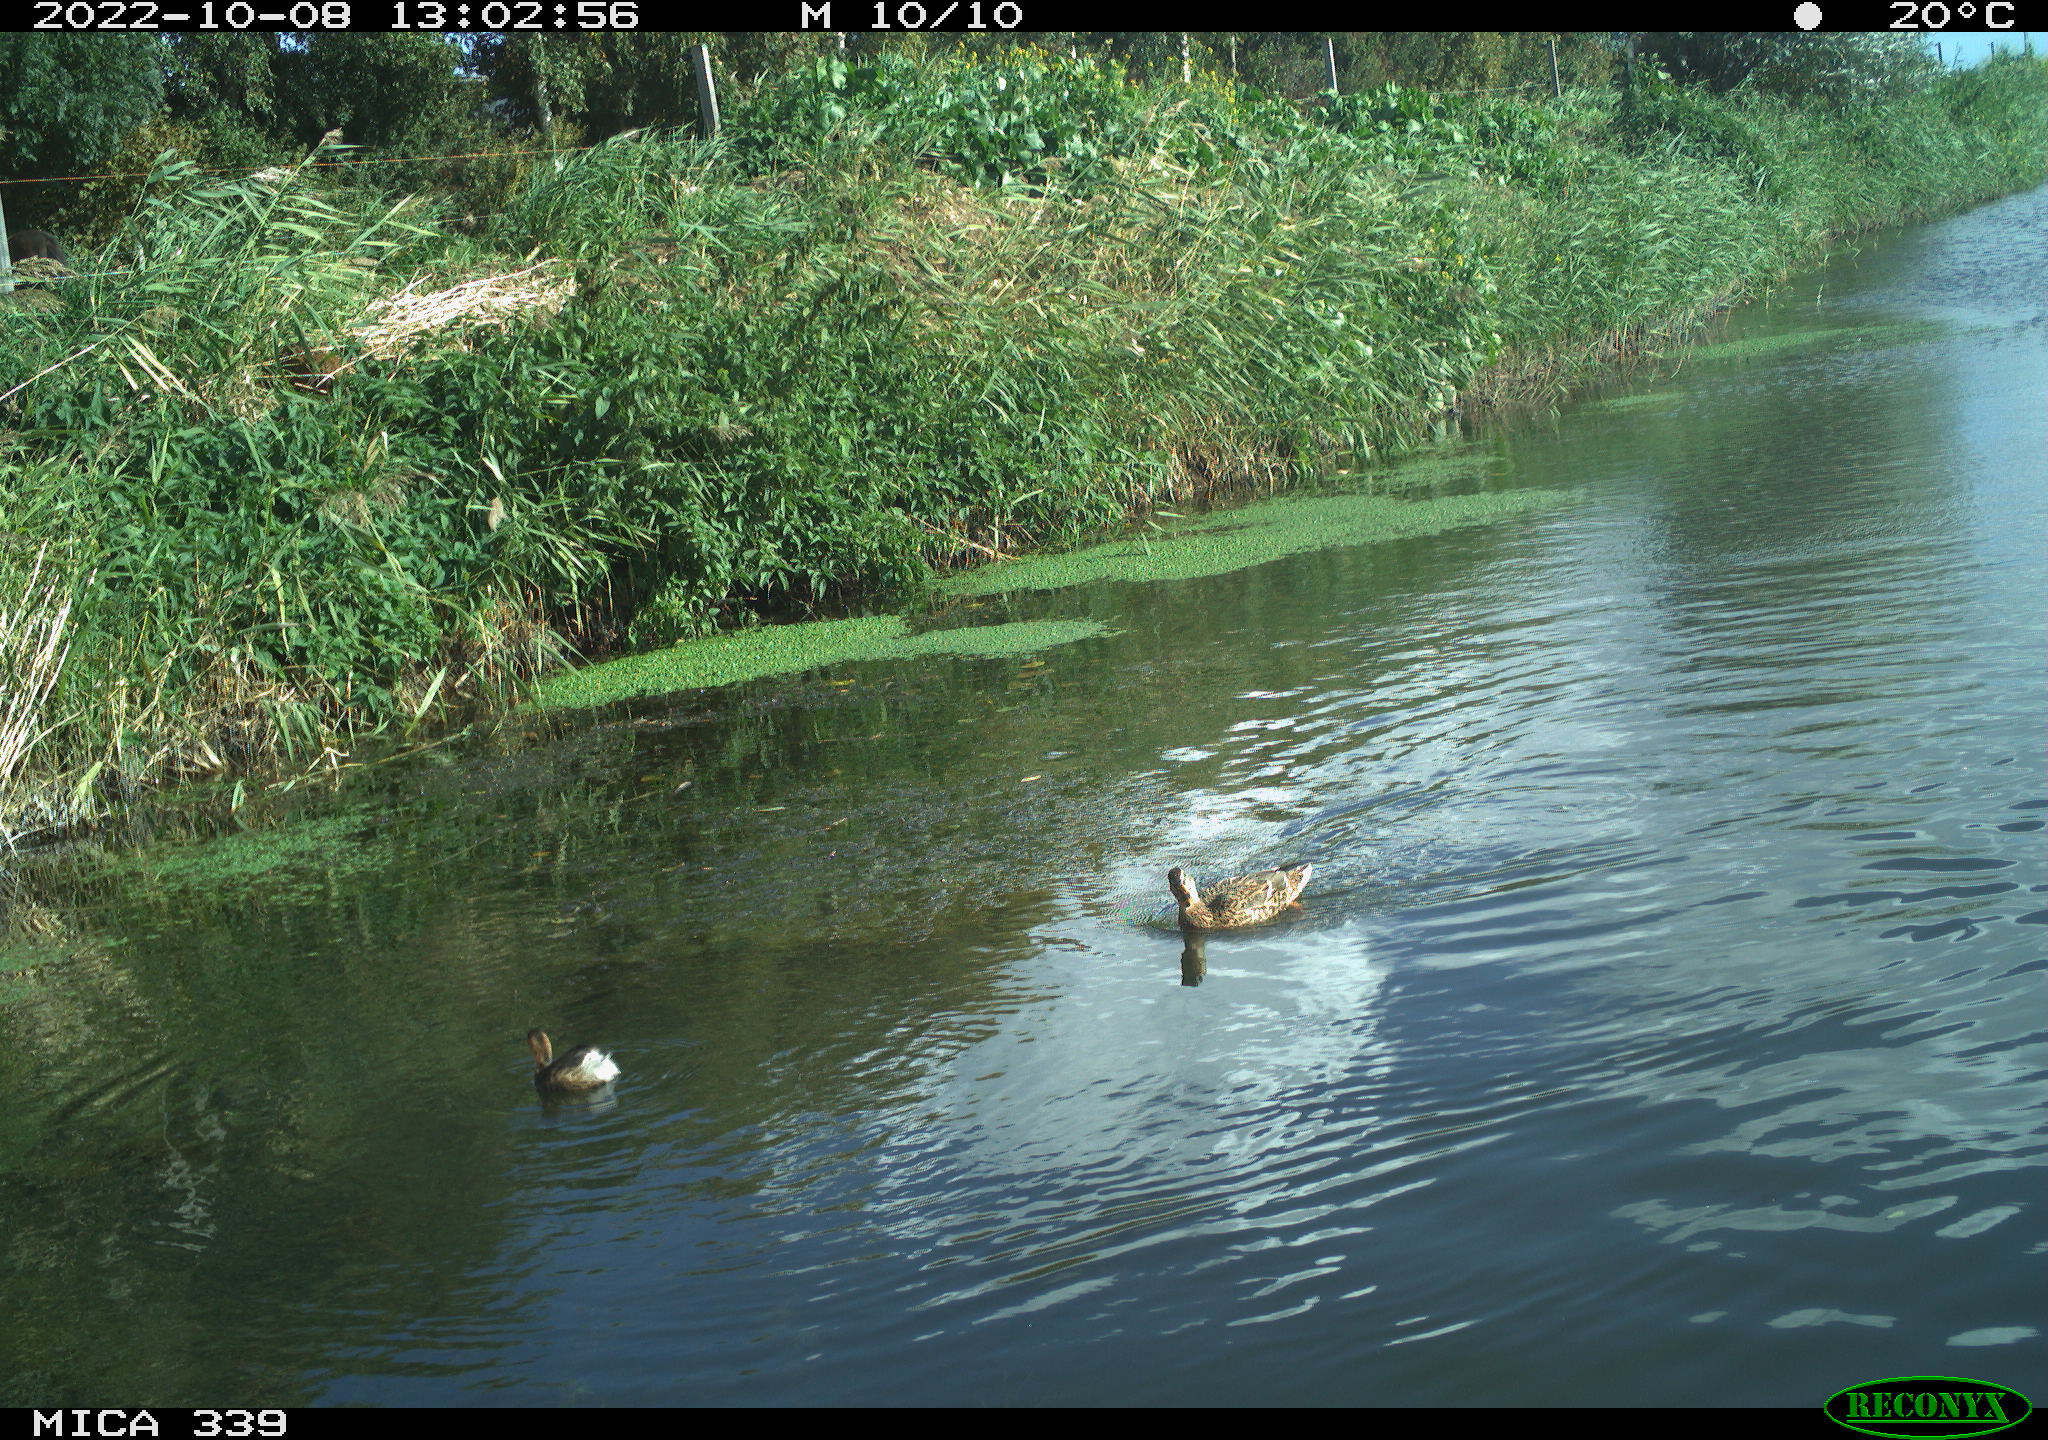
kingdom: Animalia
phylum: Chordata
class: Aves
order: Anseriformes
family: Anatidae
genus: Anas
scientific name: Anas platyrhynchos
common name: Mallard
